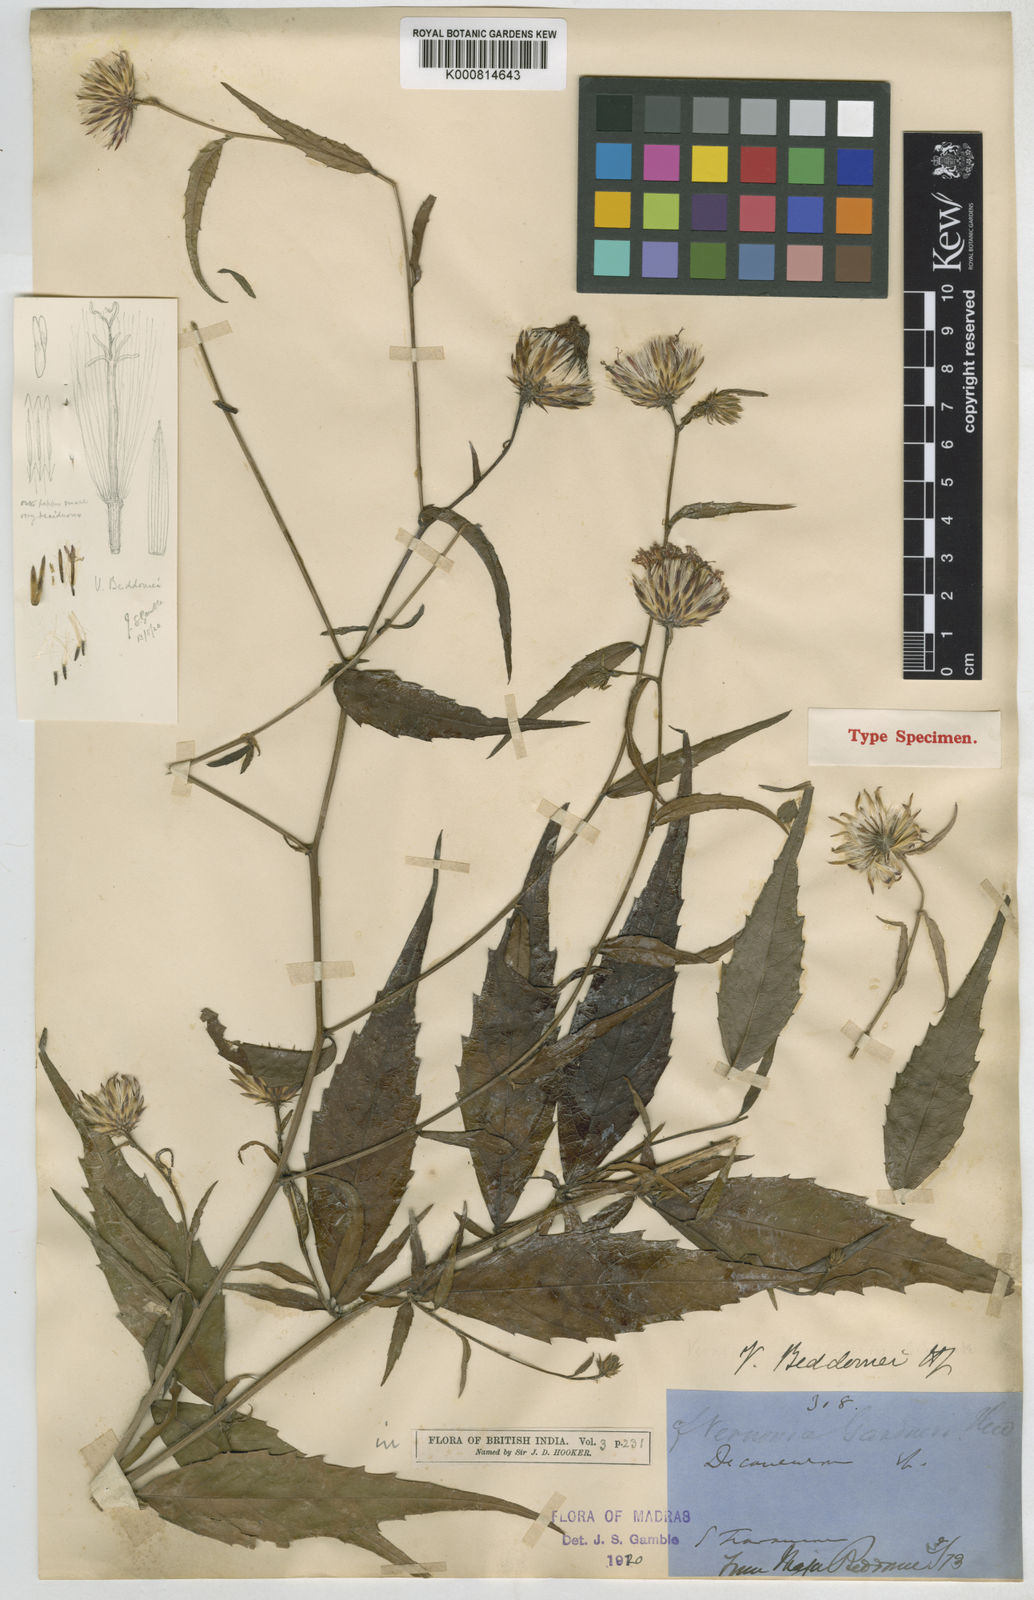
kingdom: Plantae
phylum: Tracheophyta
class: Magnoliopsida
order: Asterales
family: Asteraceae
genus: Vernonia
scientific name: Vernonia beddomei
